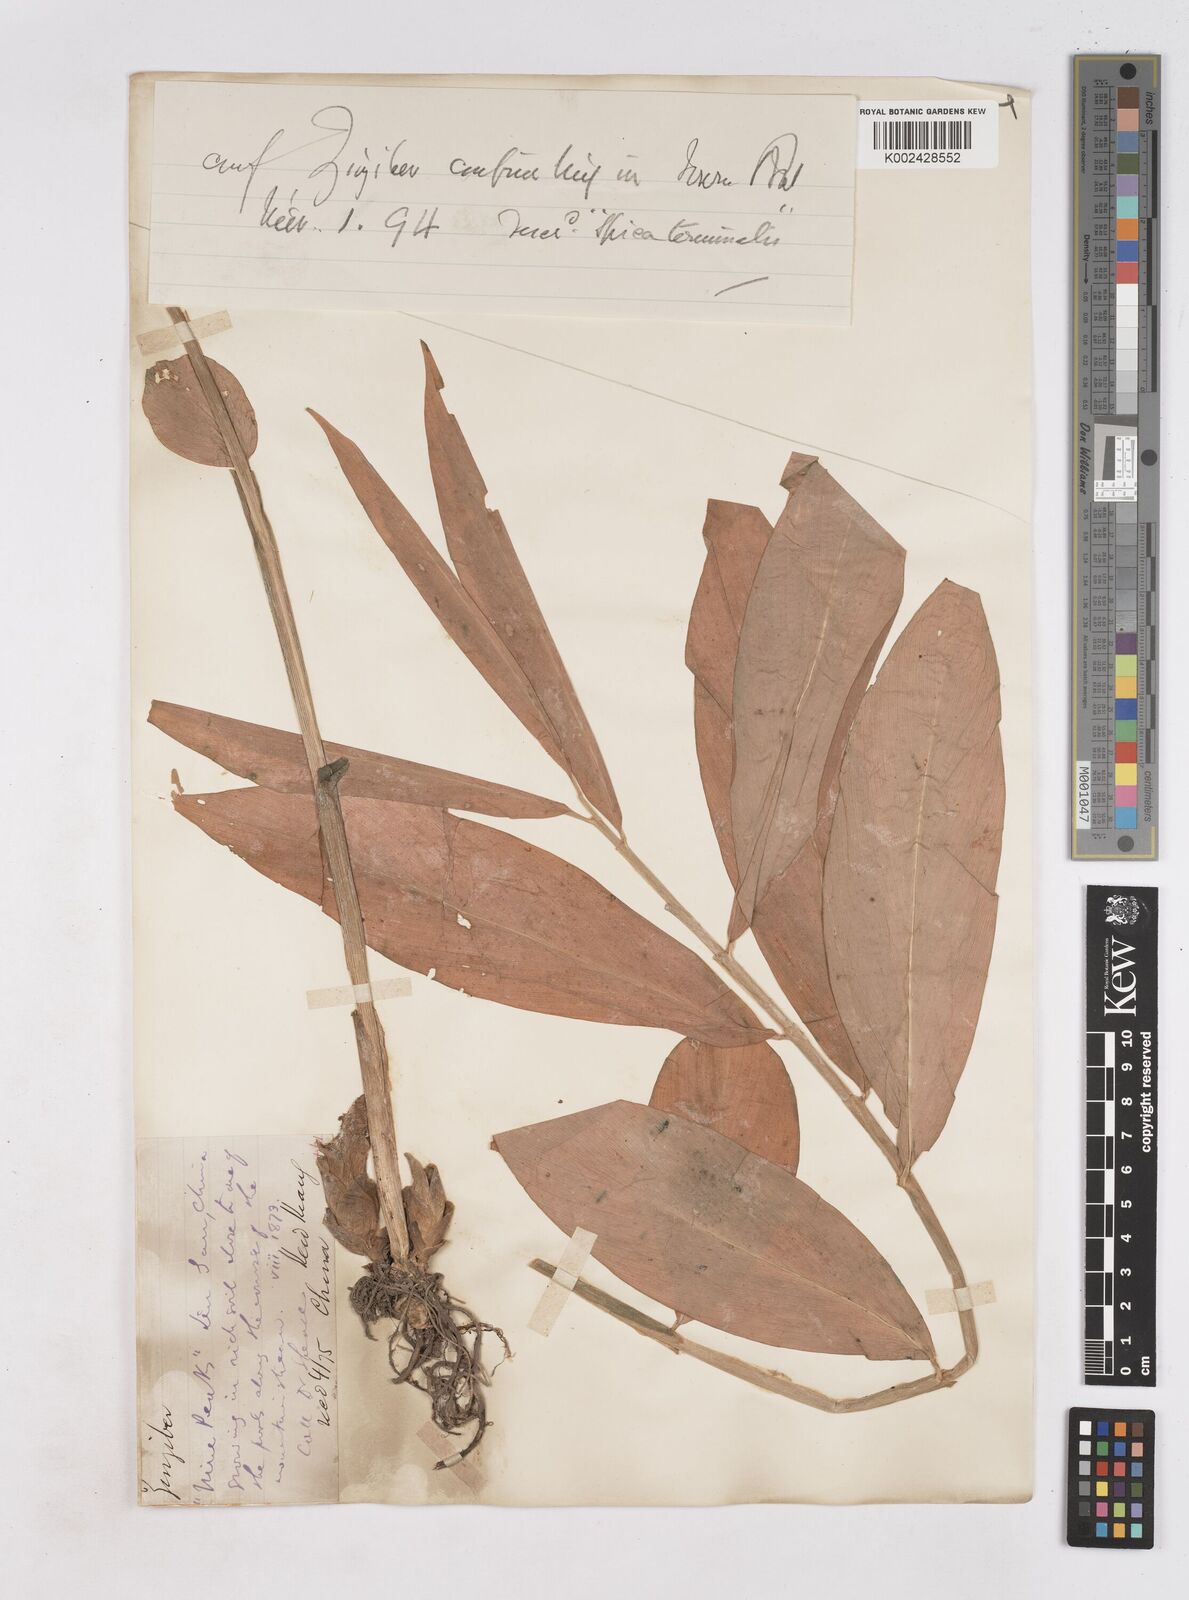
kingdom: Plantae
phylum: Tracheophyta
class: Liliopsida
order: Zingiberales
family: Zingiberaceae
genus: Zingiber
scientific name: Zingiber
